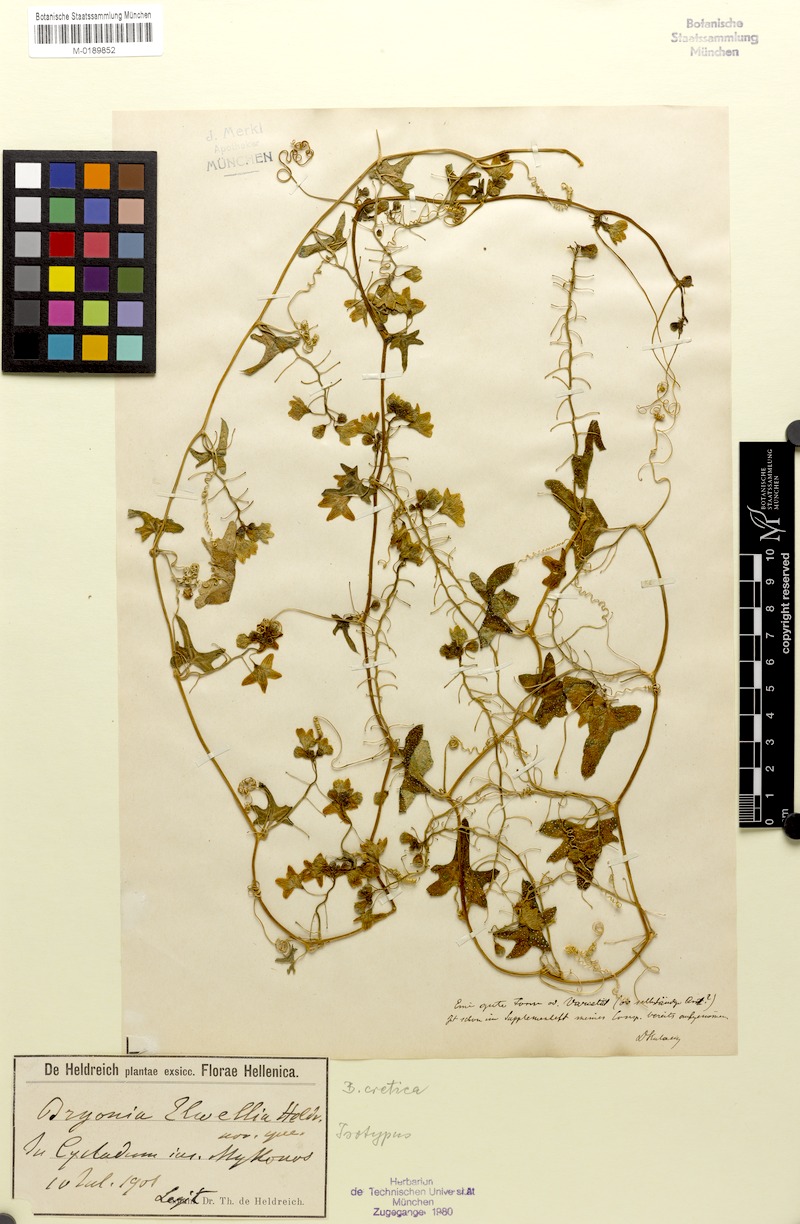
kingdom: Plantae
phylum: Tracheophyta
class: Magnoliopsida
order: Cucurbitales
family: Cucurbitaceae
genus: Bryonia
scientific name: Bryonia cretica
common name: Cretan bryony
